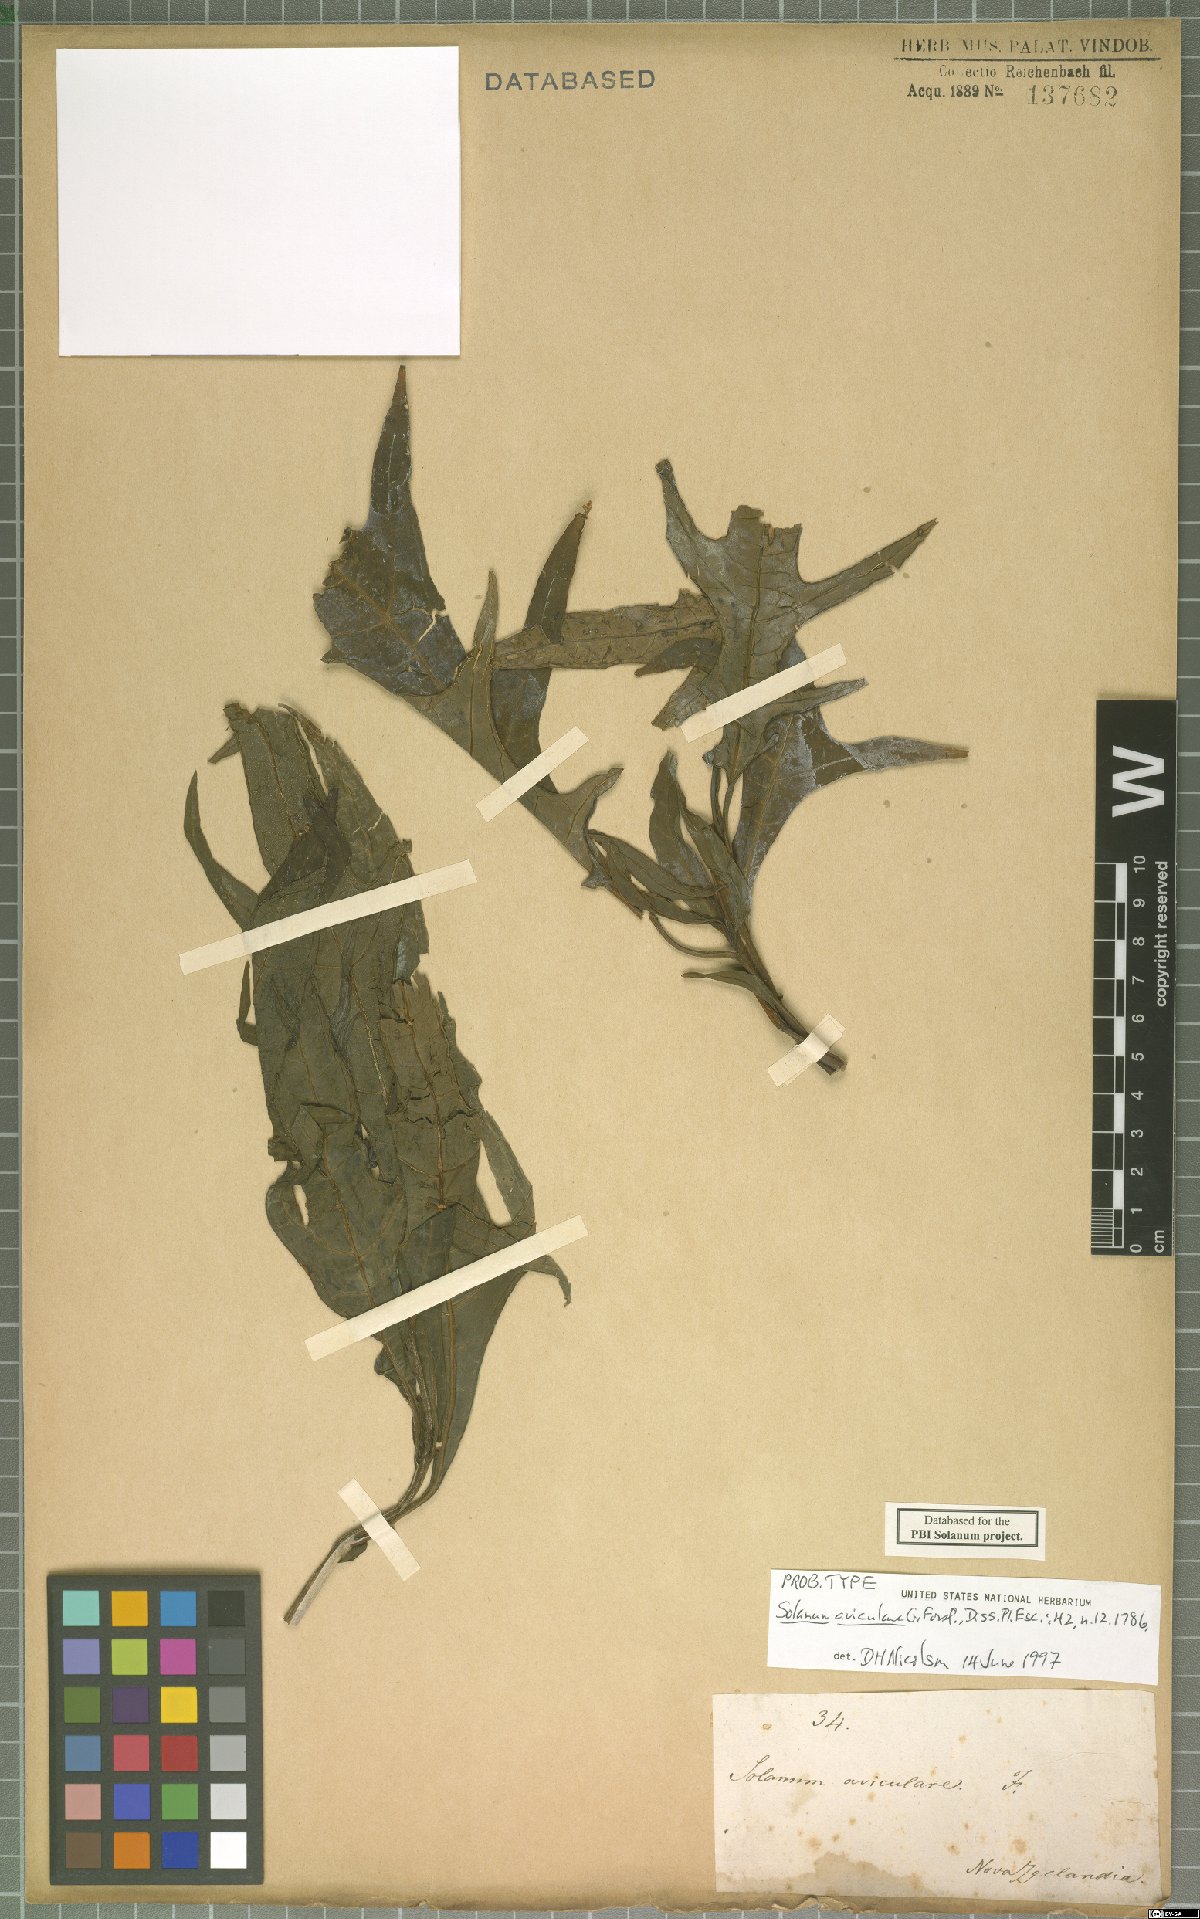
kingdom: Plantae
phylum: Tracheophyta
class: Magnoliopsida
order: Solanales
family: Solanaceae
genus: Solanum
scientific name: Solanum aviculare
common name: New zealand nightshade
